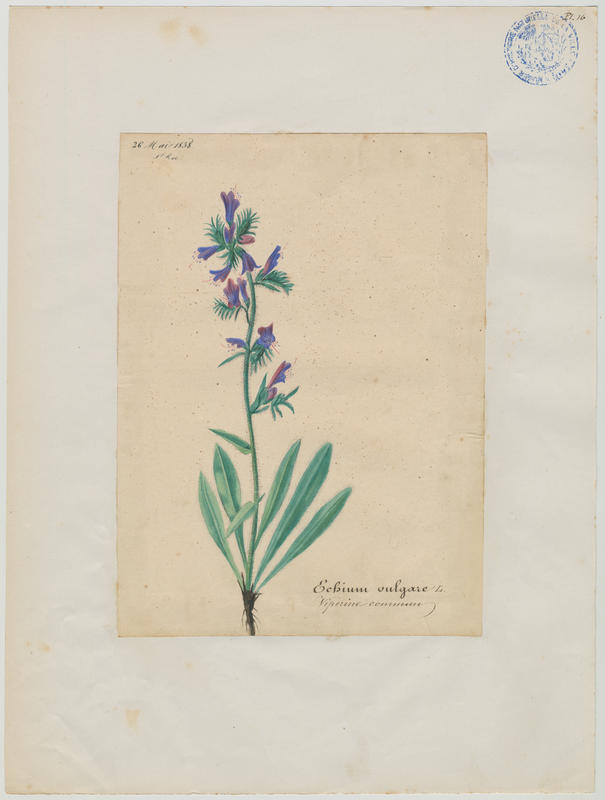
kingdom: Plantae
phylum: Tracheophyta
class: Magnoliopsida
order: Boraginales
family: Boraginaceae
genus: Echium
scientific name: Echium vulgare
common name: Common viper's bugloss
